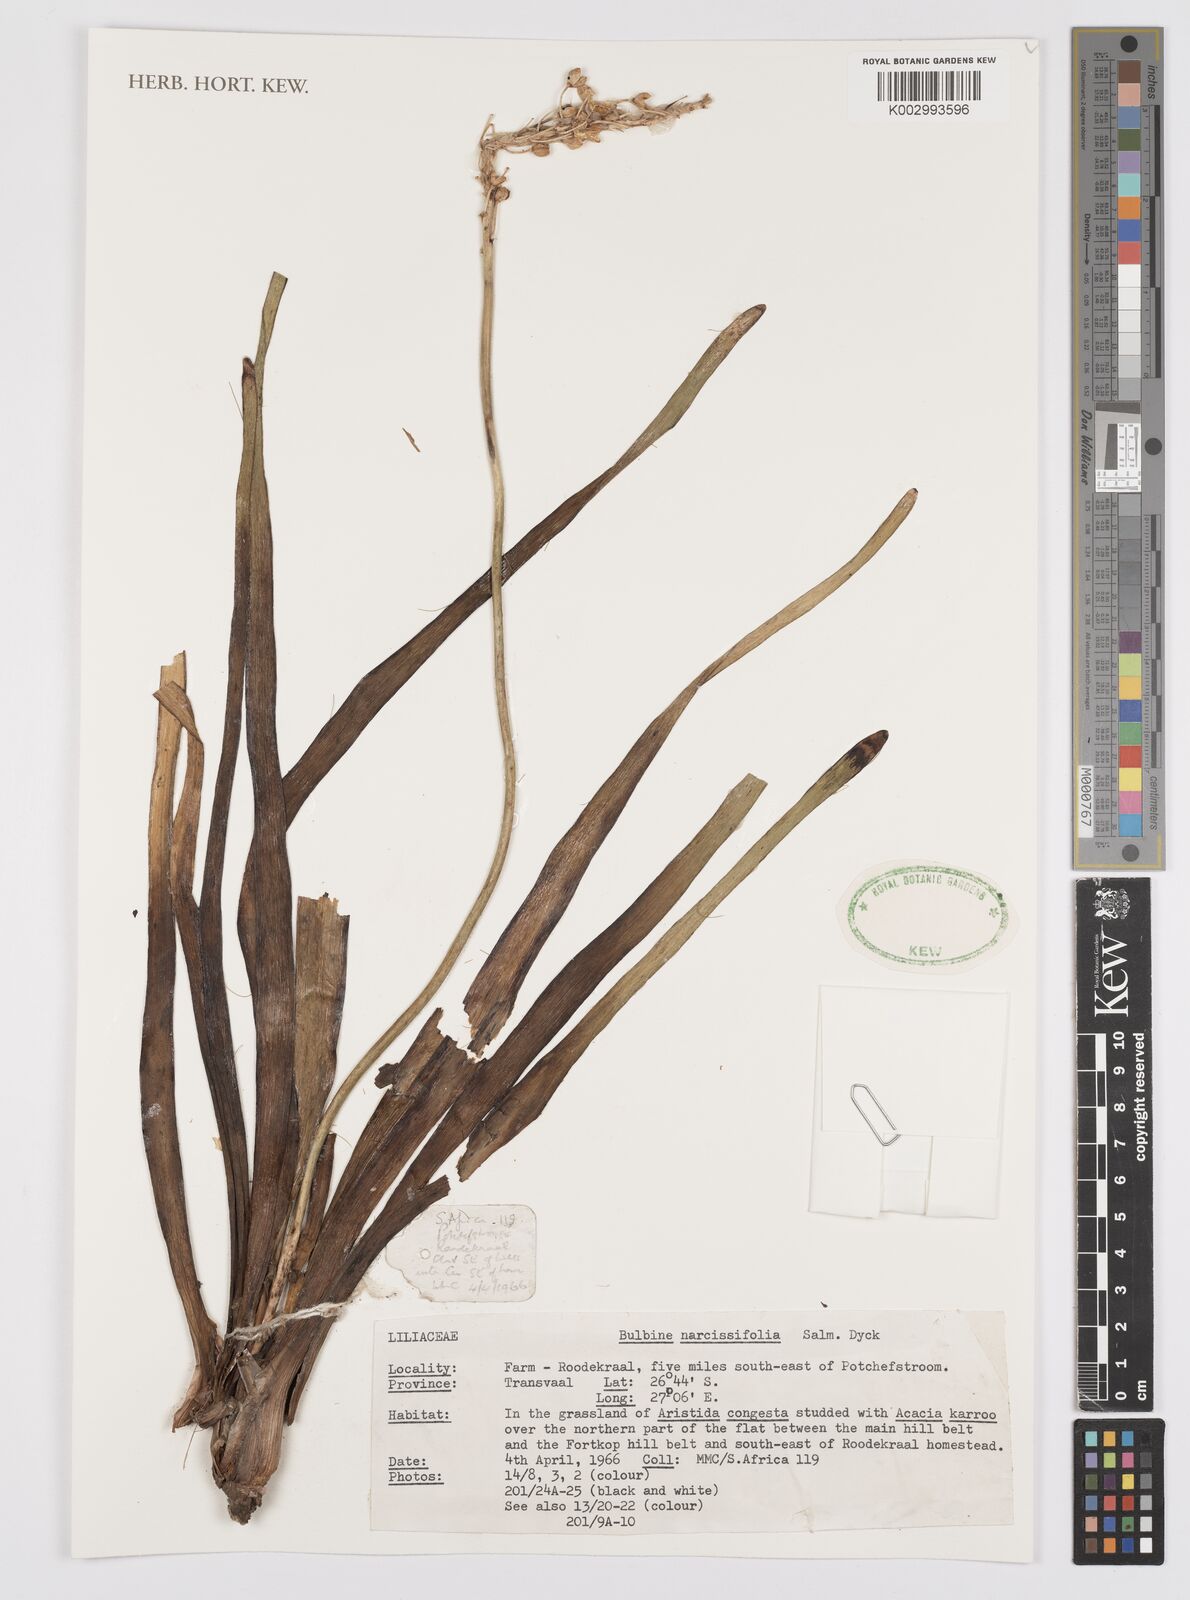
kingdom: Plantae
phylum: Tracheophyta
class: Liliopsida
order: Asparagales
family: Asphodelaceae
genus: Bulbine
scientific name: Bulbine narcissifolia
